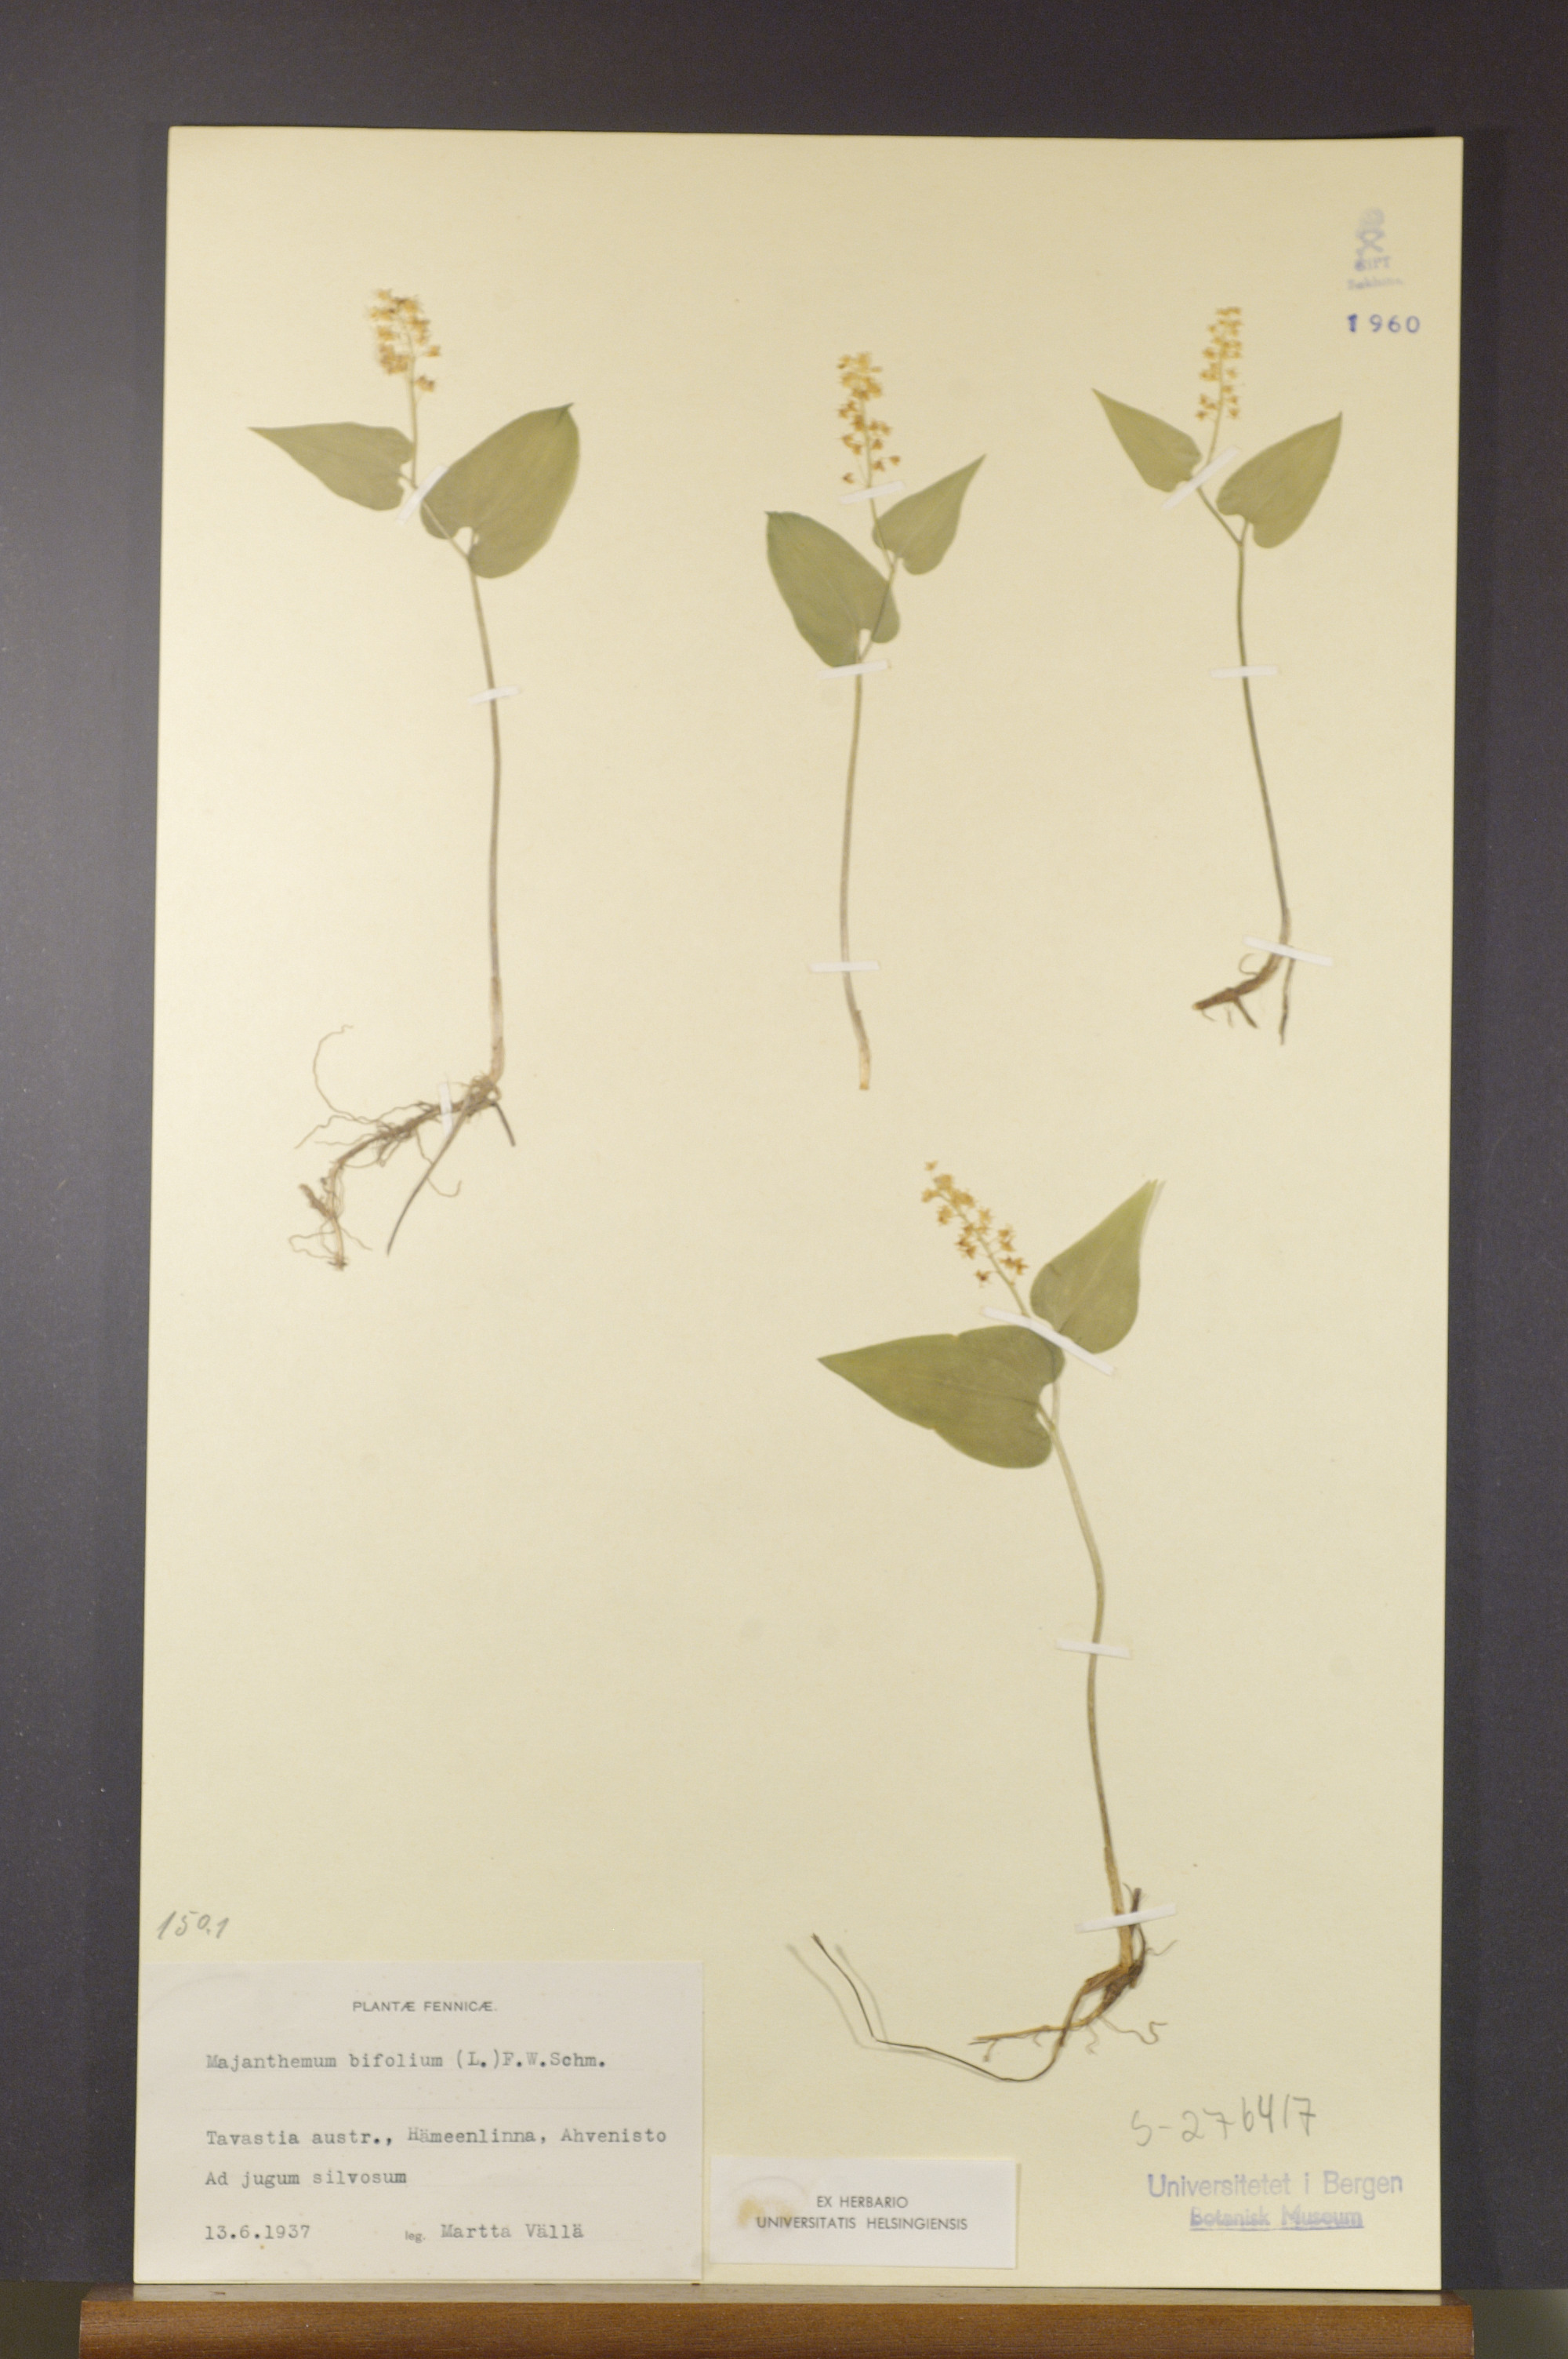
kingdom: Plantae
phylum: Tracheophyta
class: Liliopsida
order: Asparagales
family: Asparagaceae
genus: Maianthemum
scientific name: Maianthemum bifolium
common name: May lily
